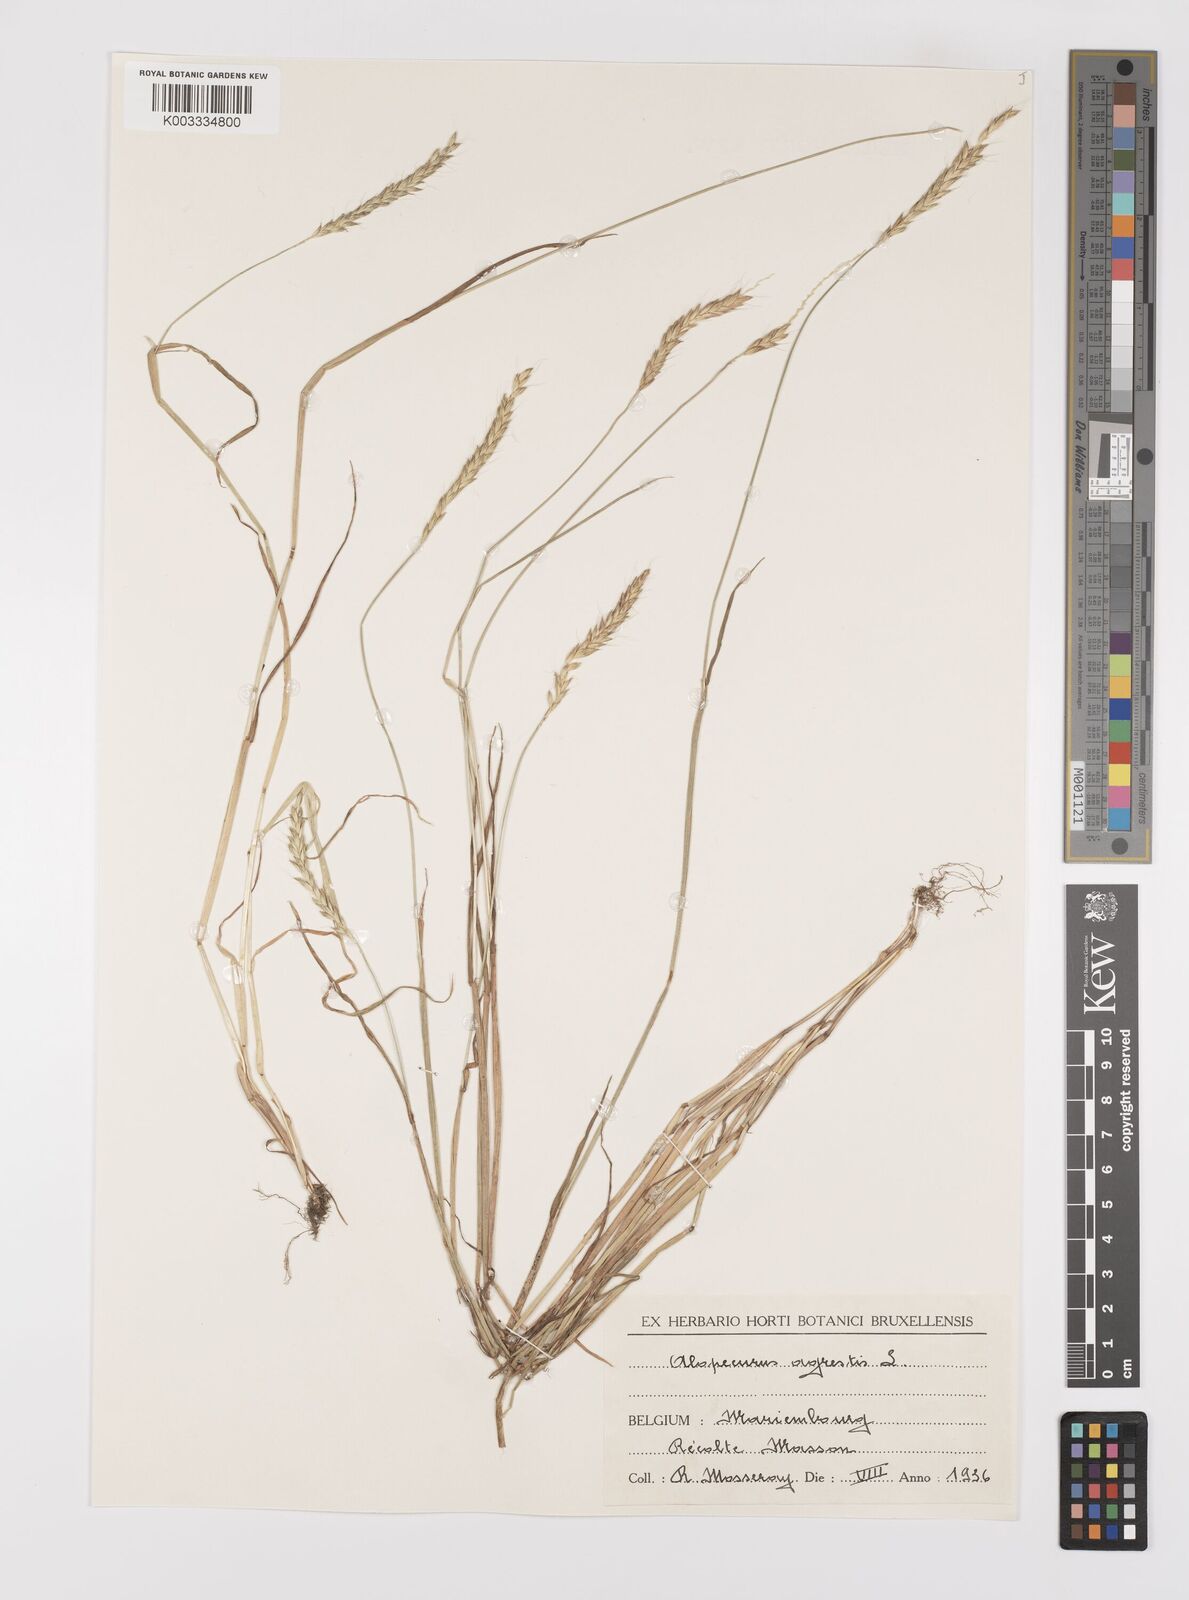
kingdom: Plantae
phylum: Tracheophyta
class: Liliopsida
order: Poales
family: Poaceae
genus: Alopecurus
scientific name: Alopecurus myosuroides
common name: Black-grass
